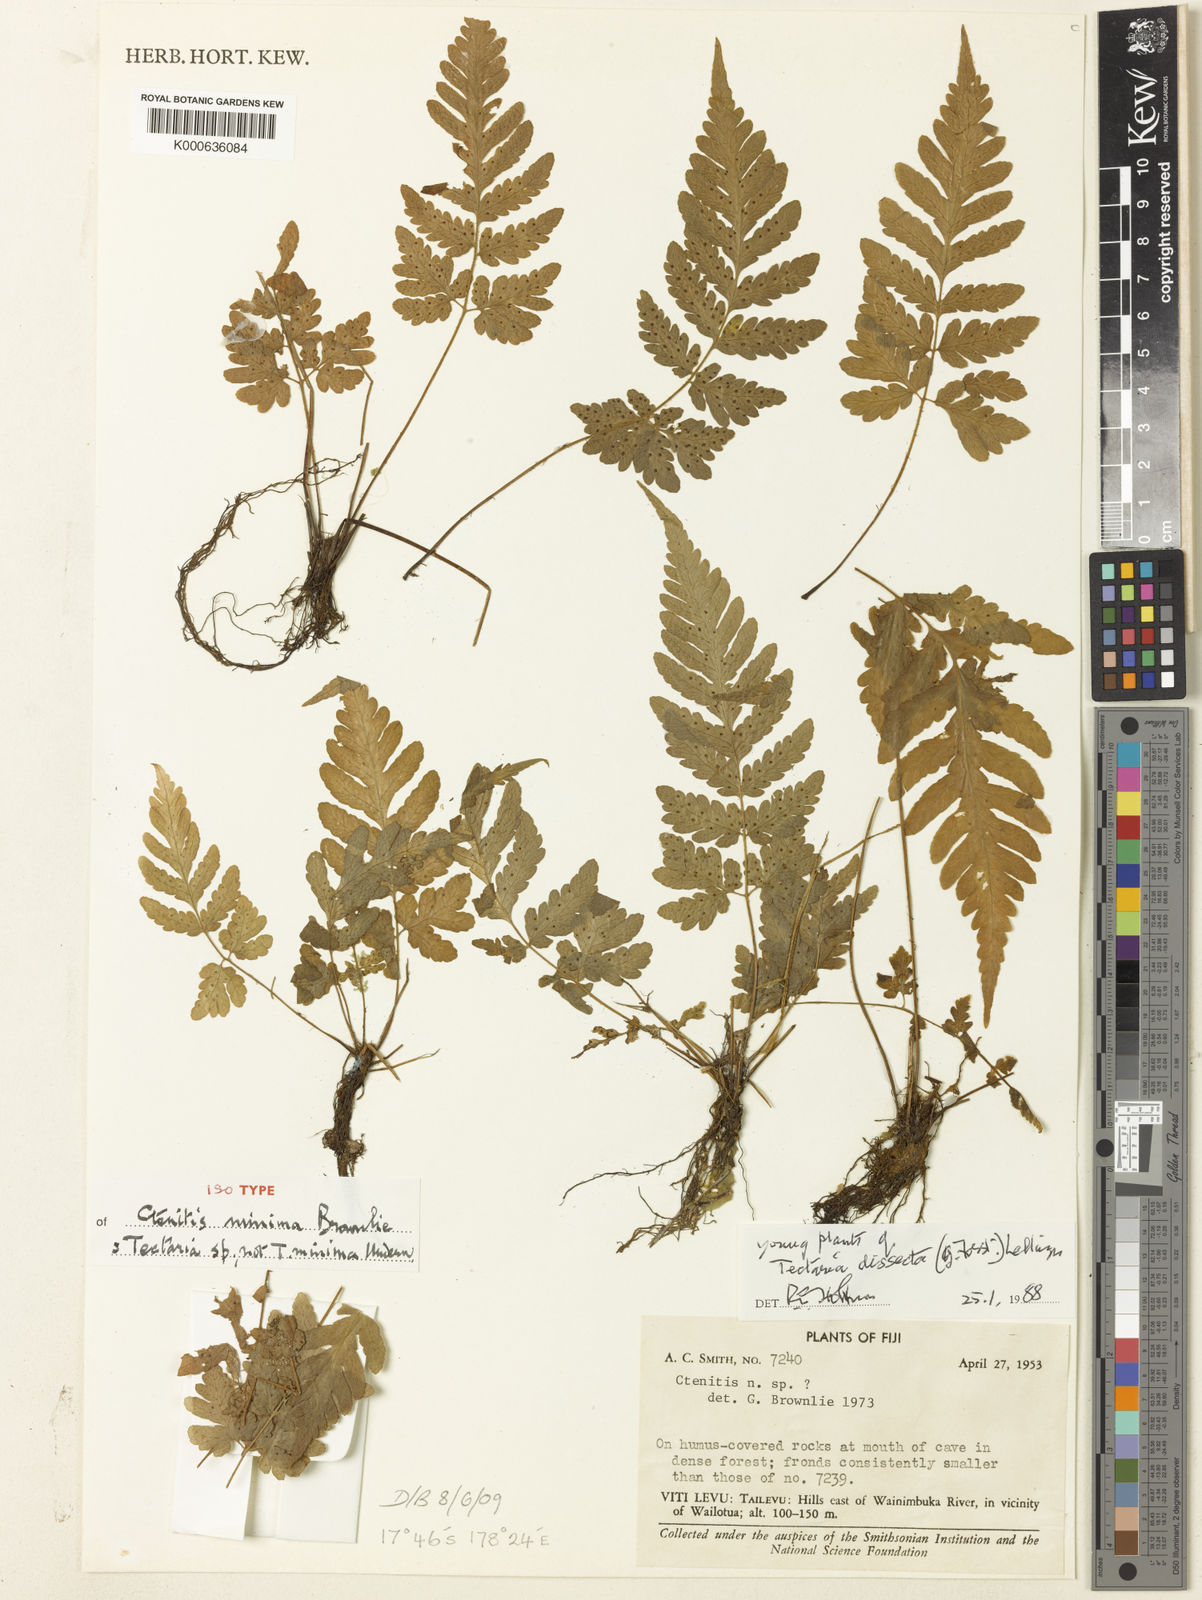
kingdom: Plantae
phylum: Tracheophyta
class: Polypodiopsida
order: Polypodiales
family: Tectariaceae
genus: Tectaria
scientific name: Tectaria dissecta
